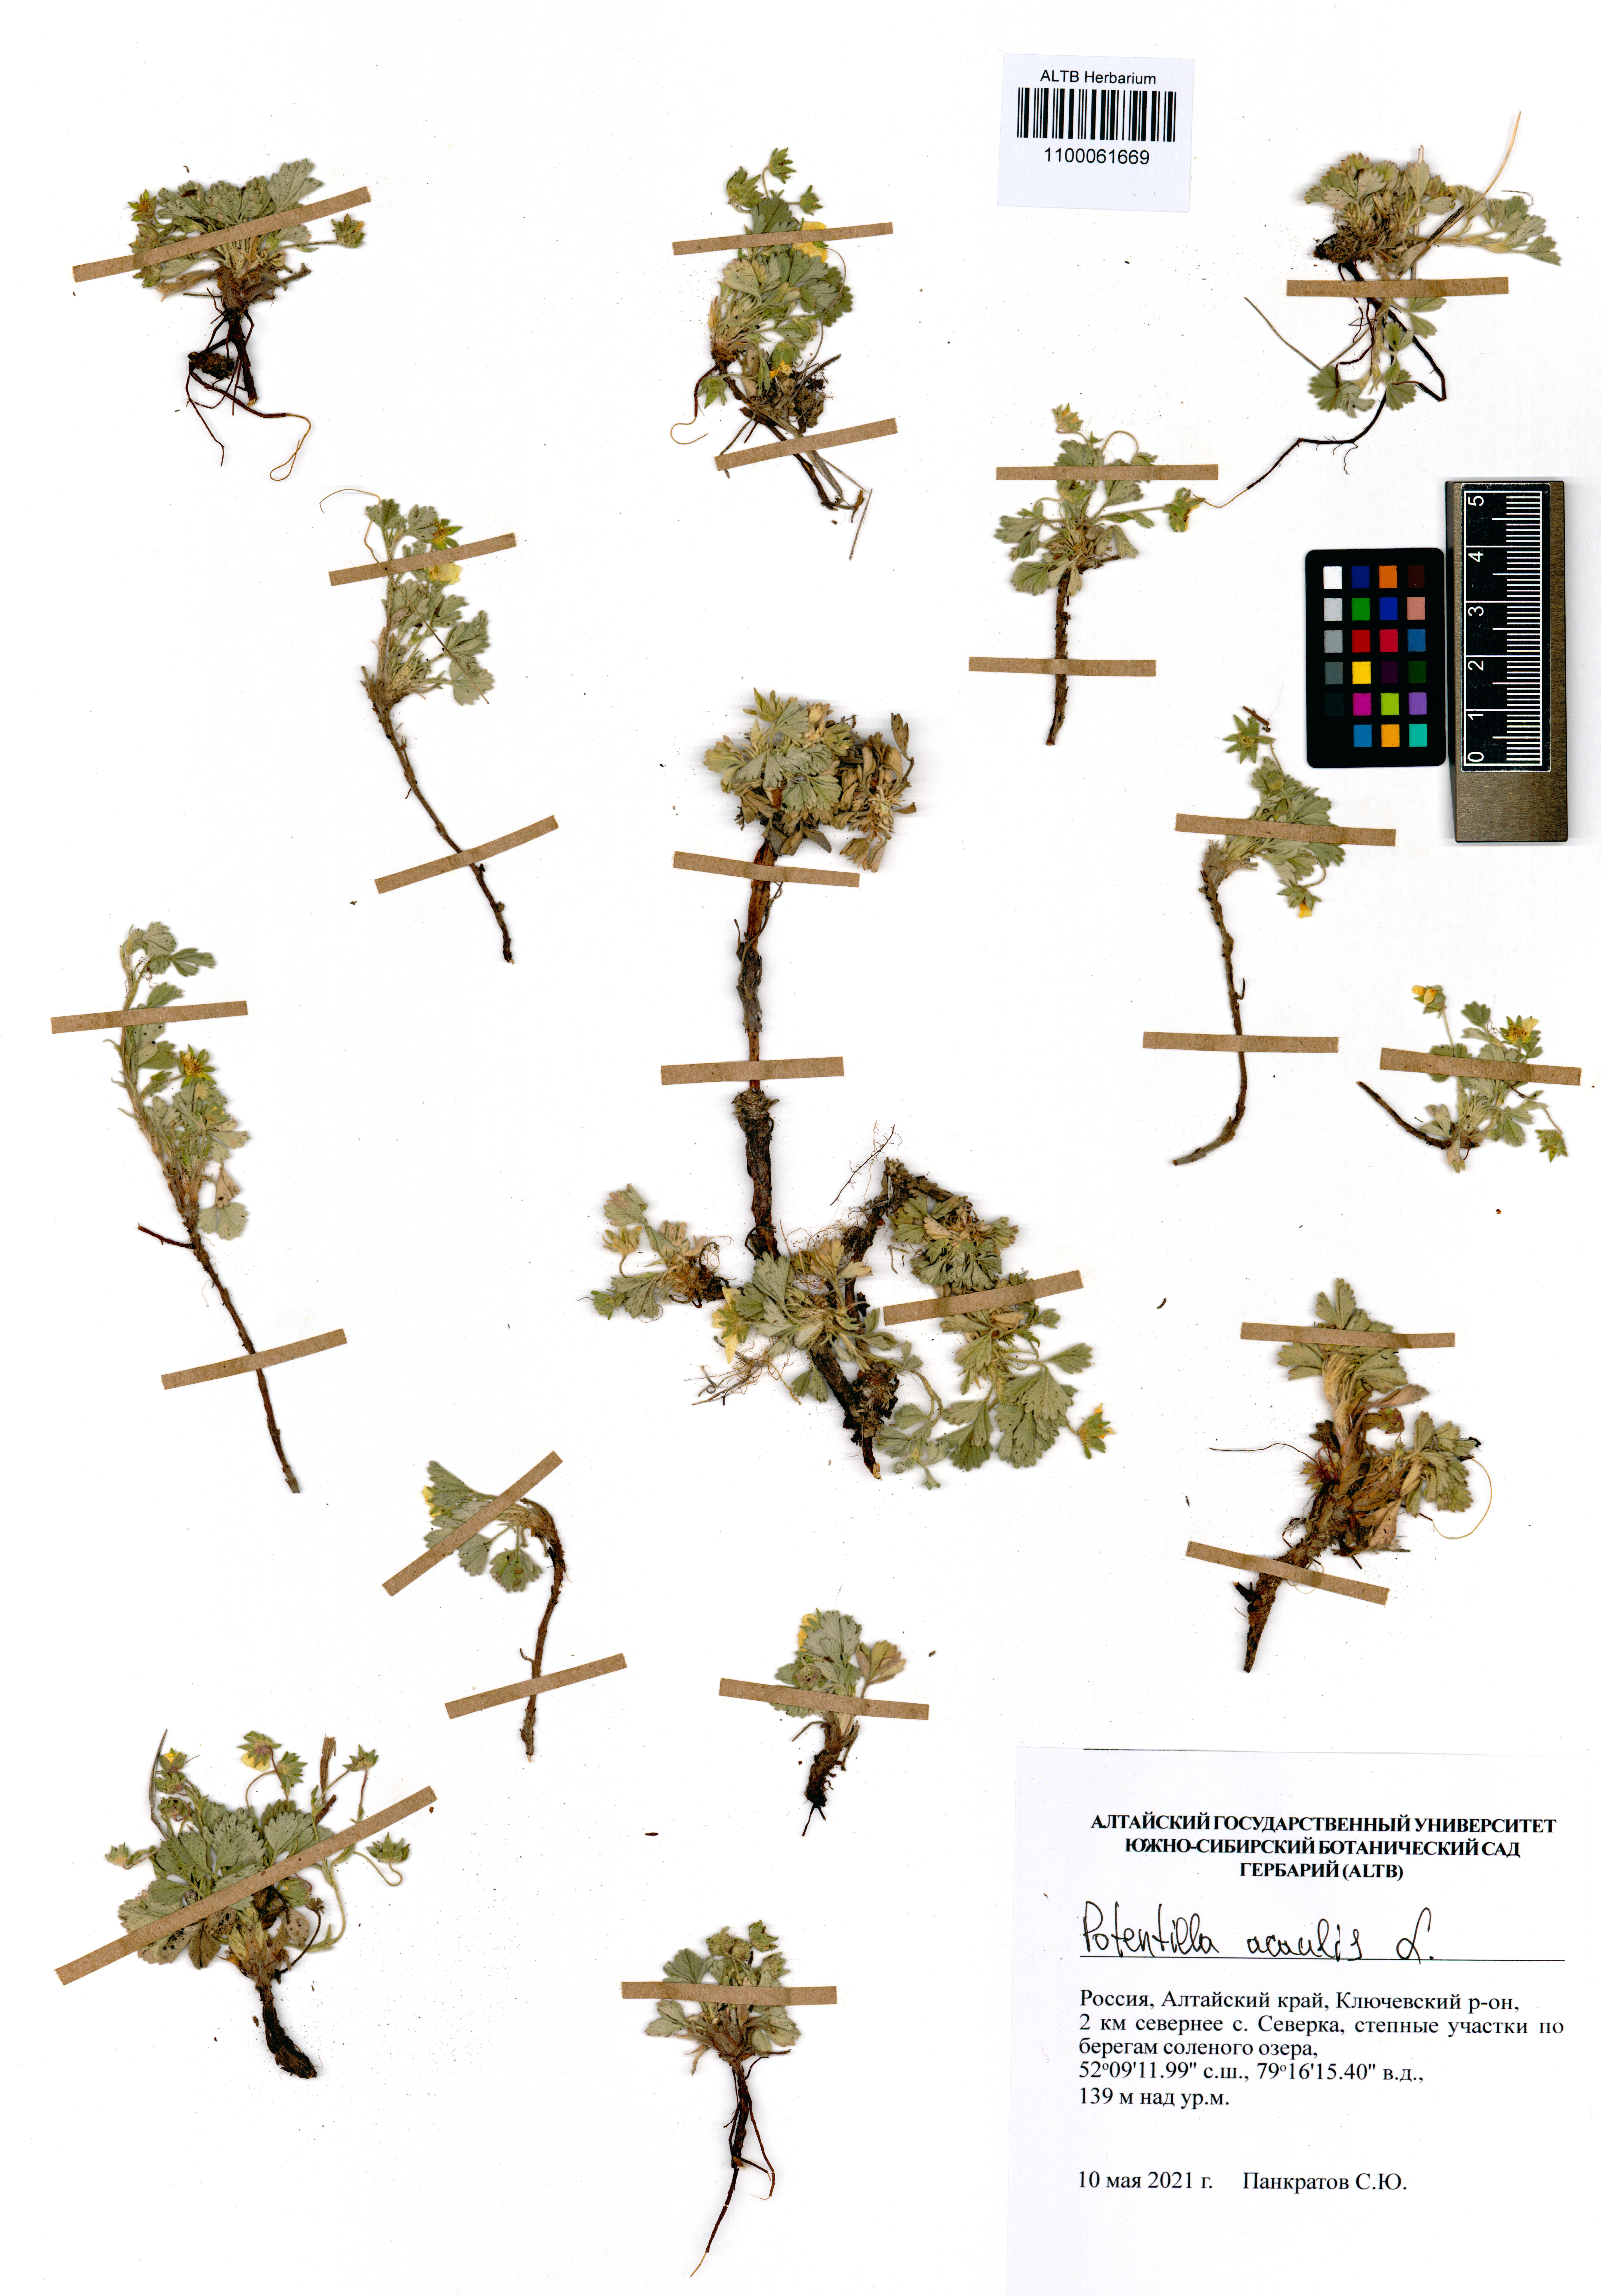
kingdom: Plantae
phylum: Tracheophyta
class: Magnoliopsida
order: Rosales
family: Rosaceae
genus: Potentilla
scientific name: Potentilla acaulis
